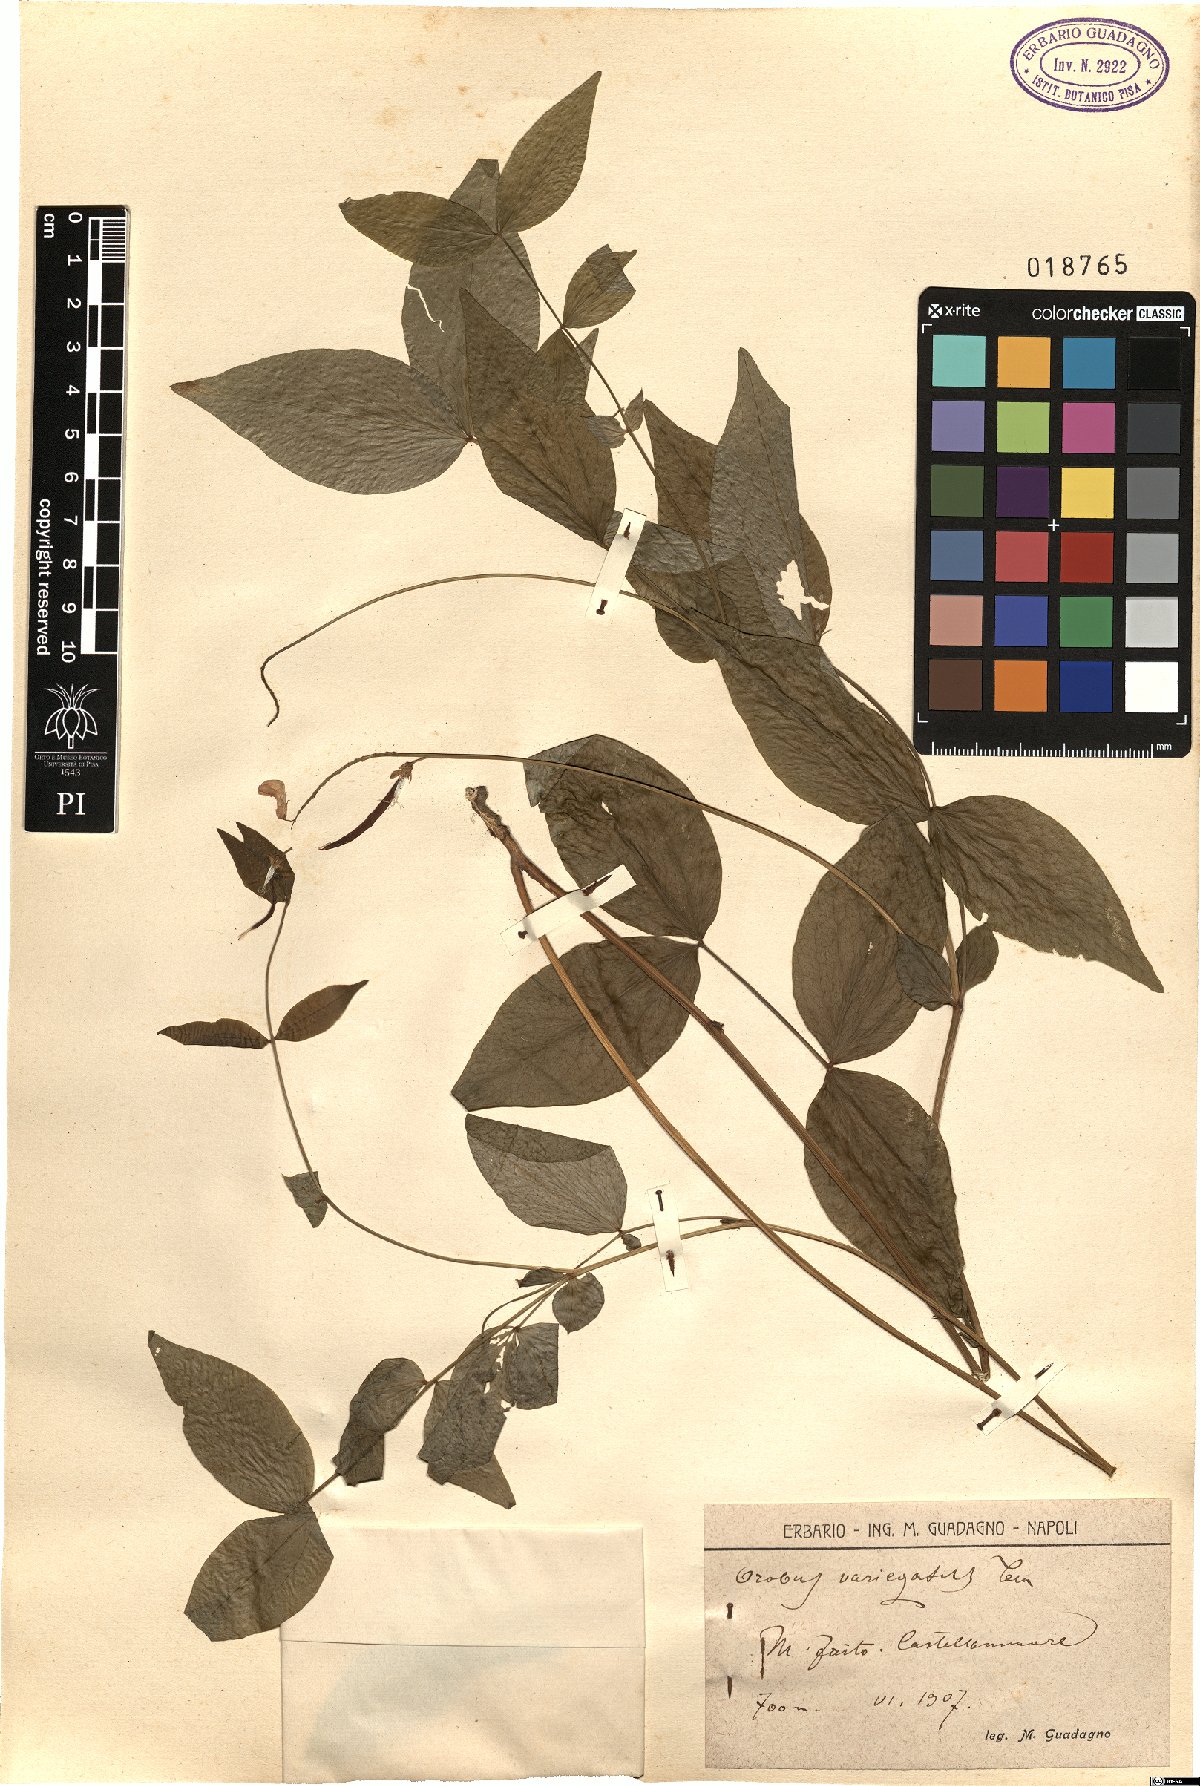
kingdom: Plantae
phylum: Tracheophyta
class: Magnoliopsida
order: Fabales
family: Fabaceae
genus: Lathyrus
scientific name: Lathyrus venetus
